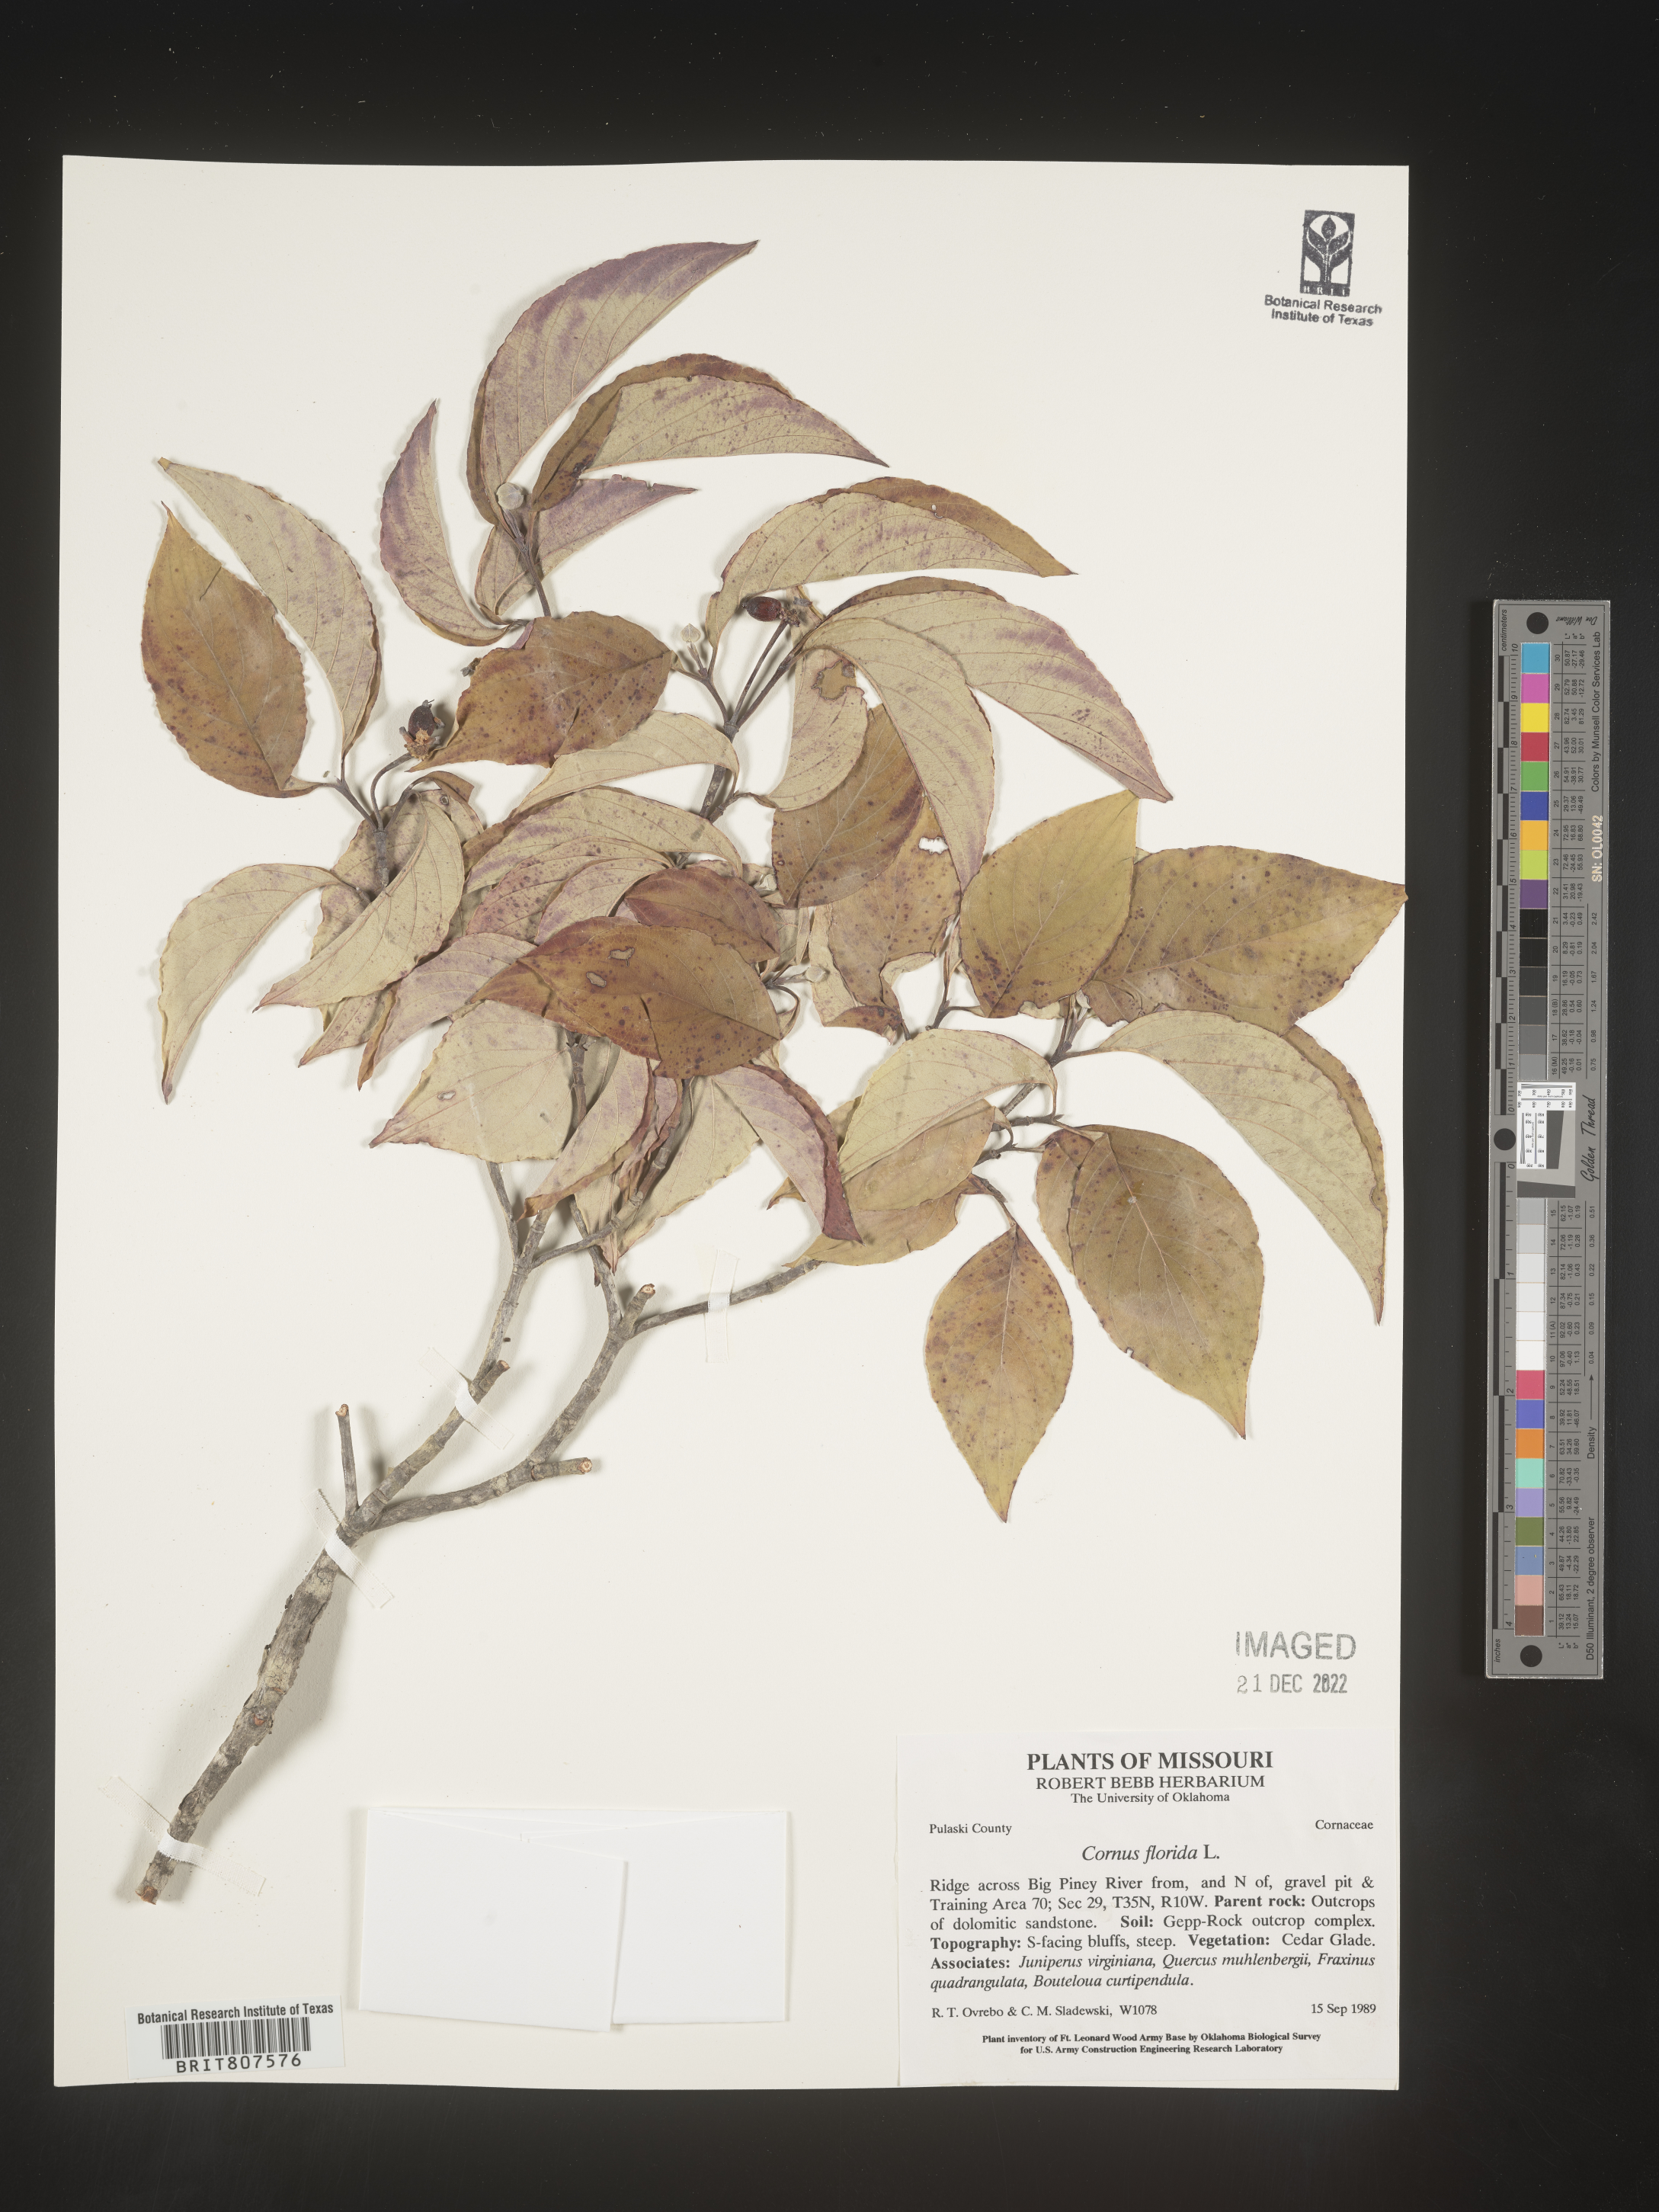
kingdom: Plantae
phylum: Tracheophyta
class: Magnoliopsida
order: Cornales
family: Cornaceae
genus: Cornus
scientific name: Cornus florida
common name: Flowering dogwood
